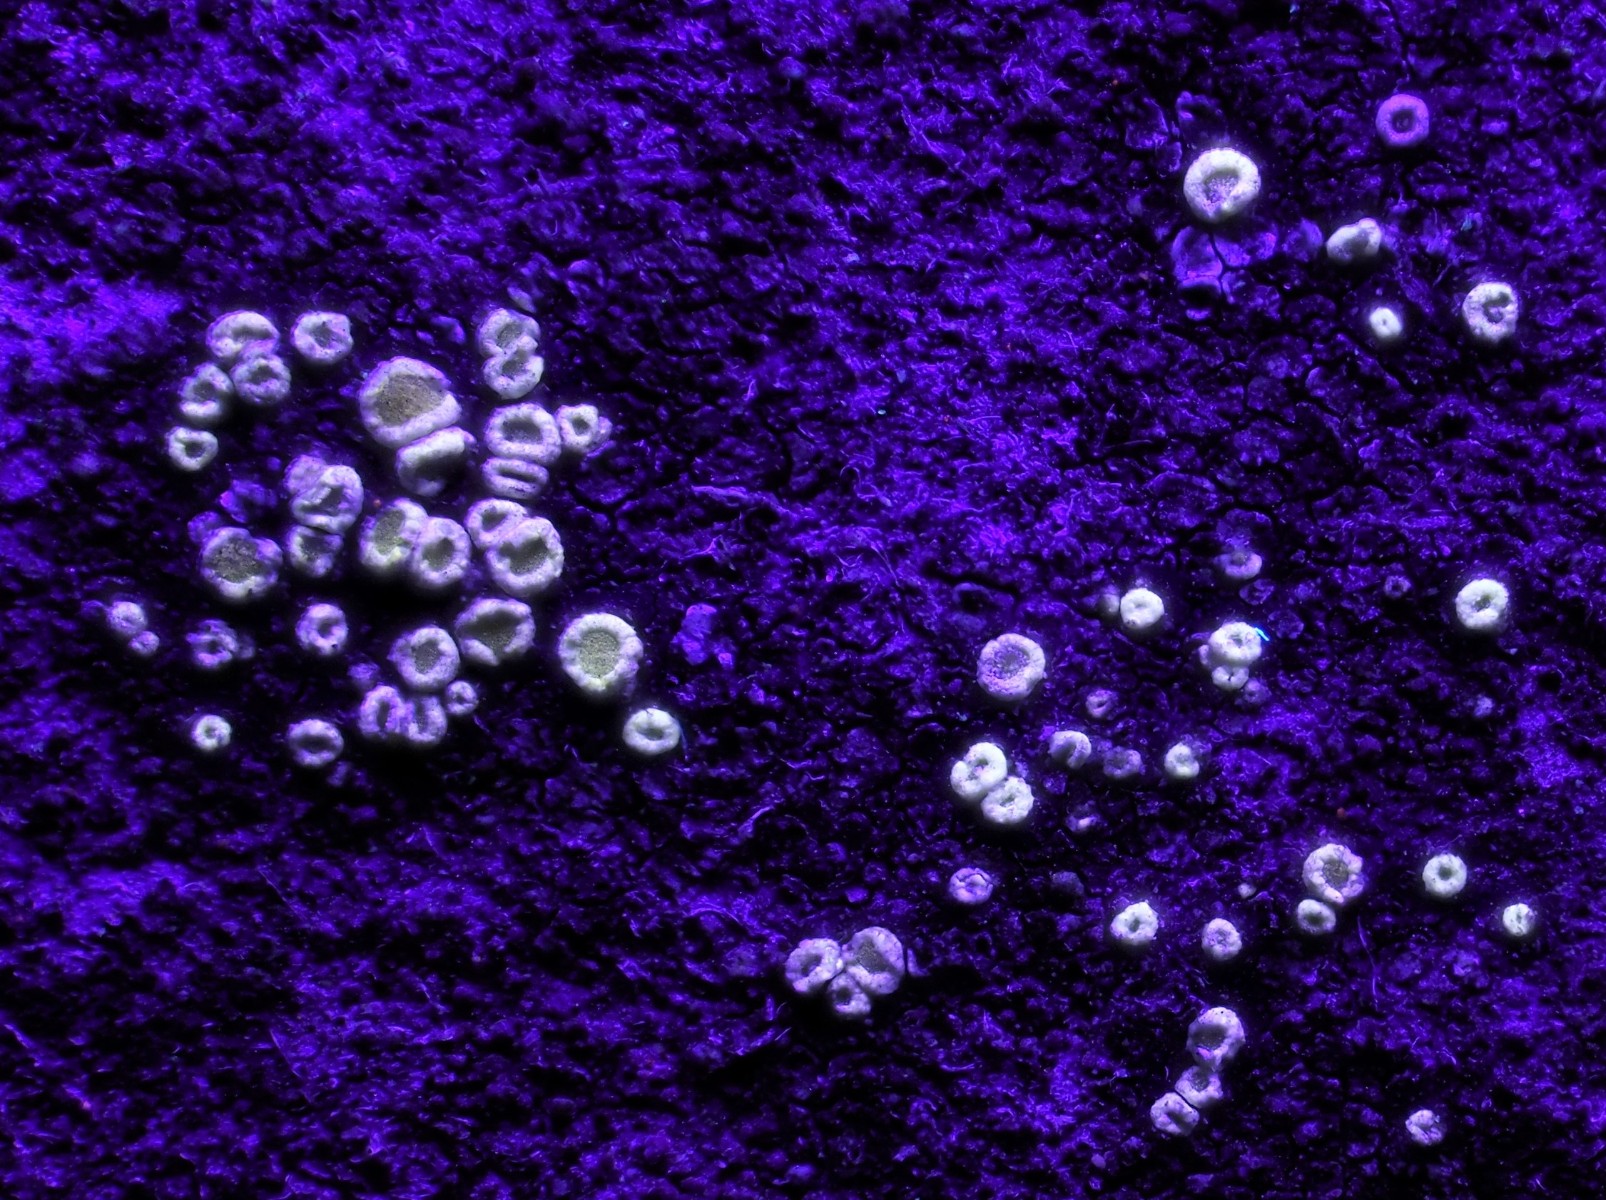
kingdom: Fungi
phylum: Ascomycota
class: Lecanoromycetes
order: Lecanorales
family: Lecanoraceae
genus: Polyozosia
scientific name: Polyozosia semipallida
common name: vinetorin-kantskivelav
